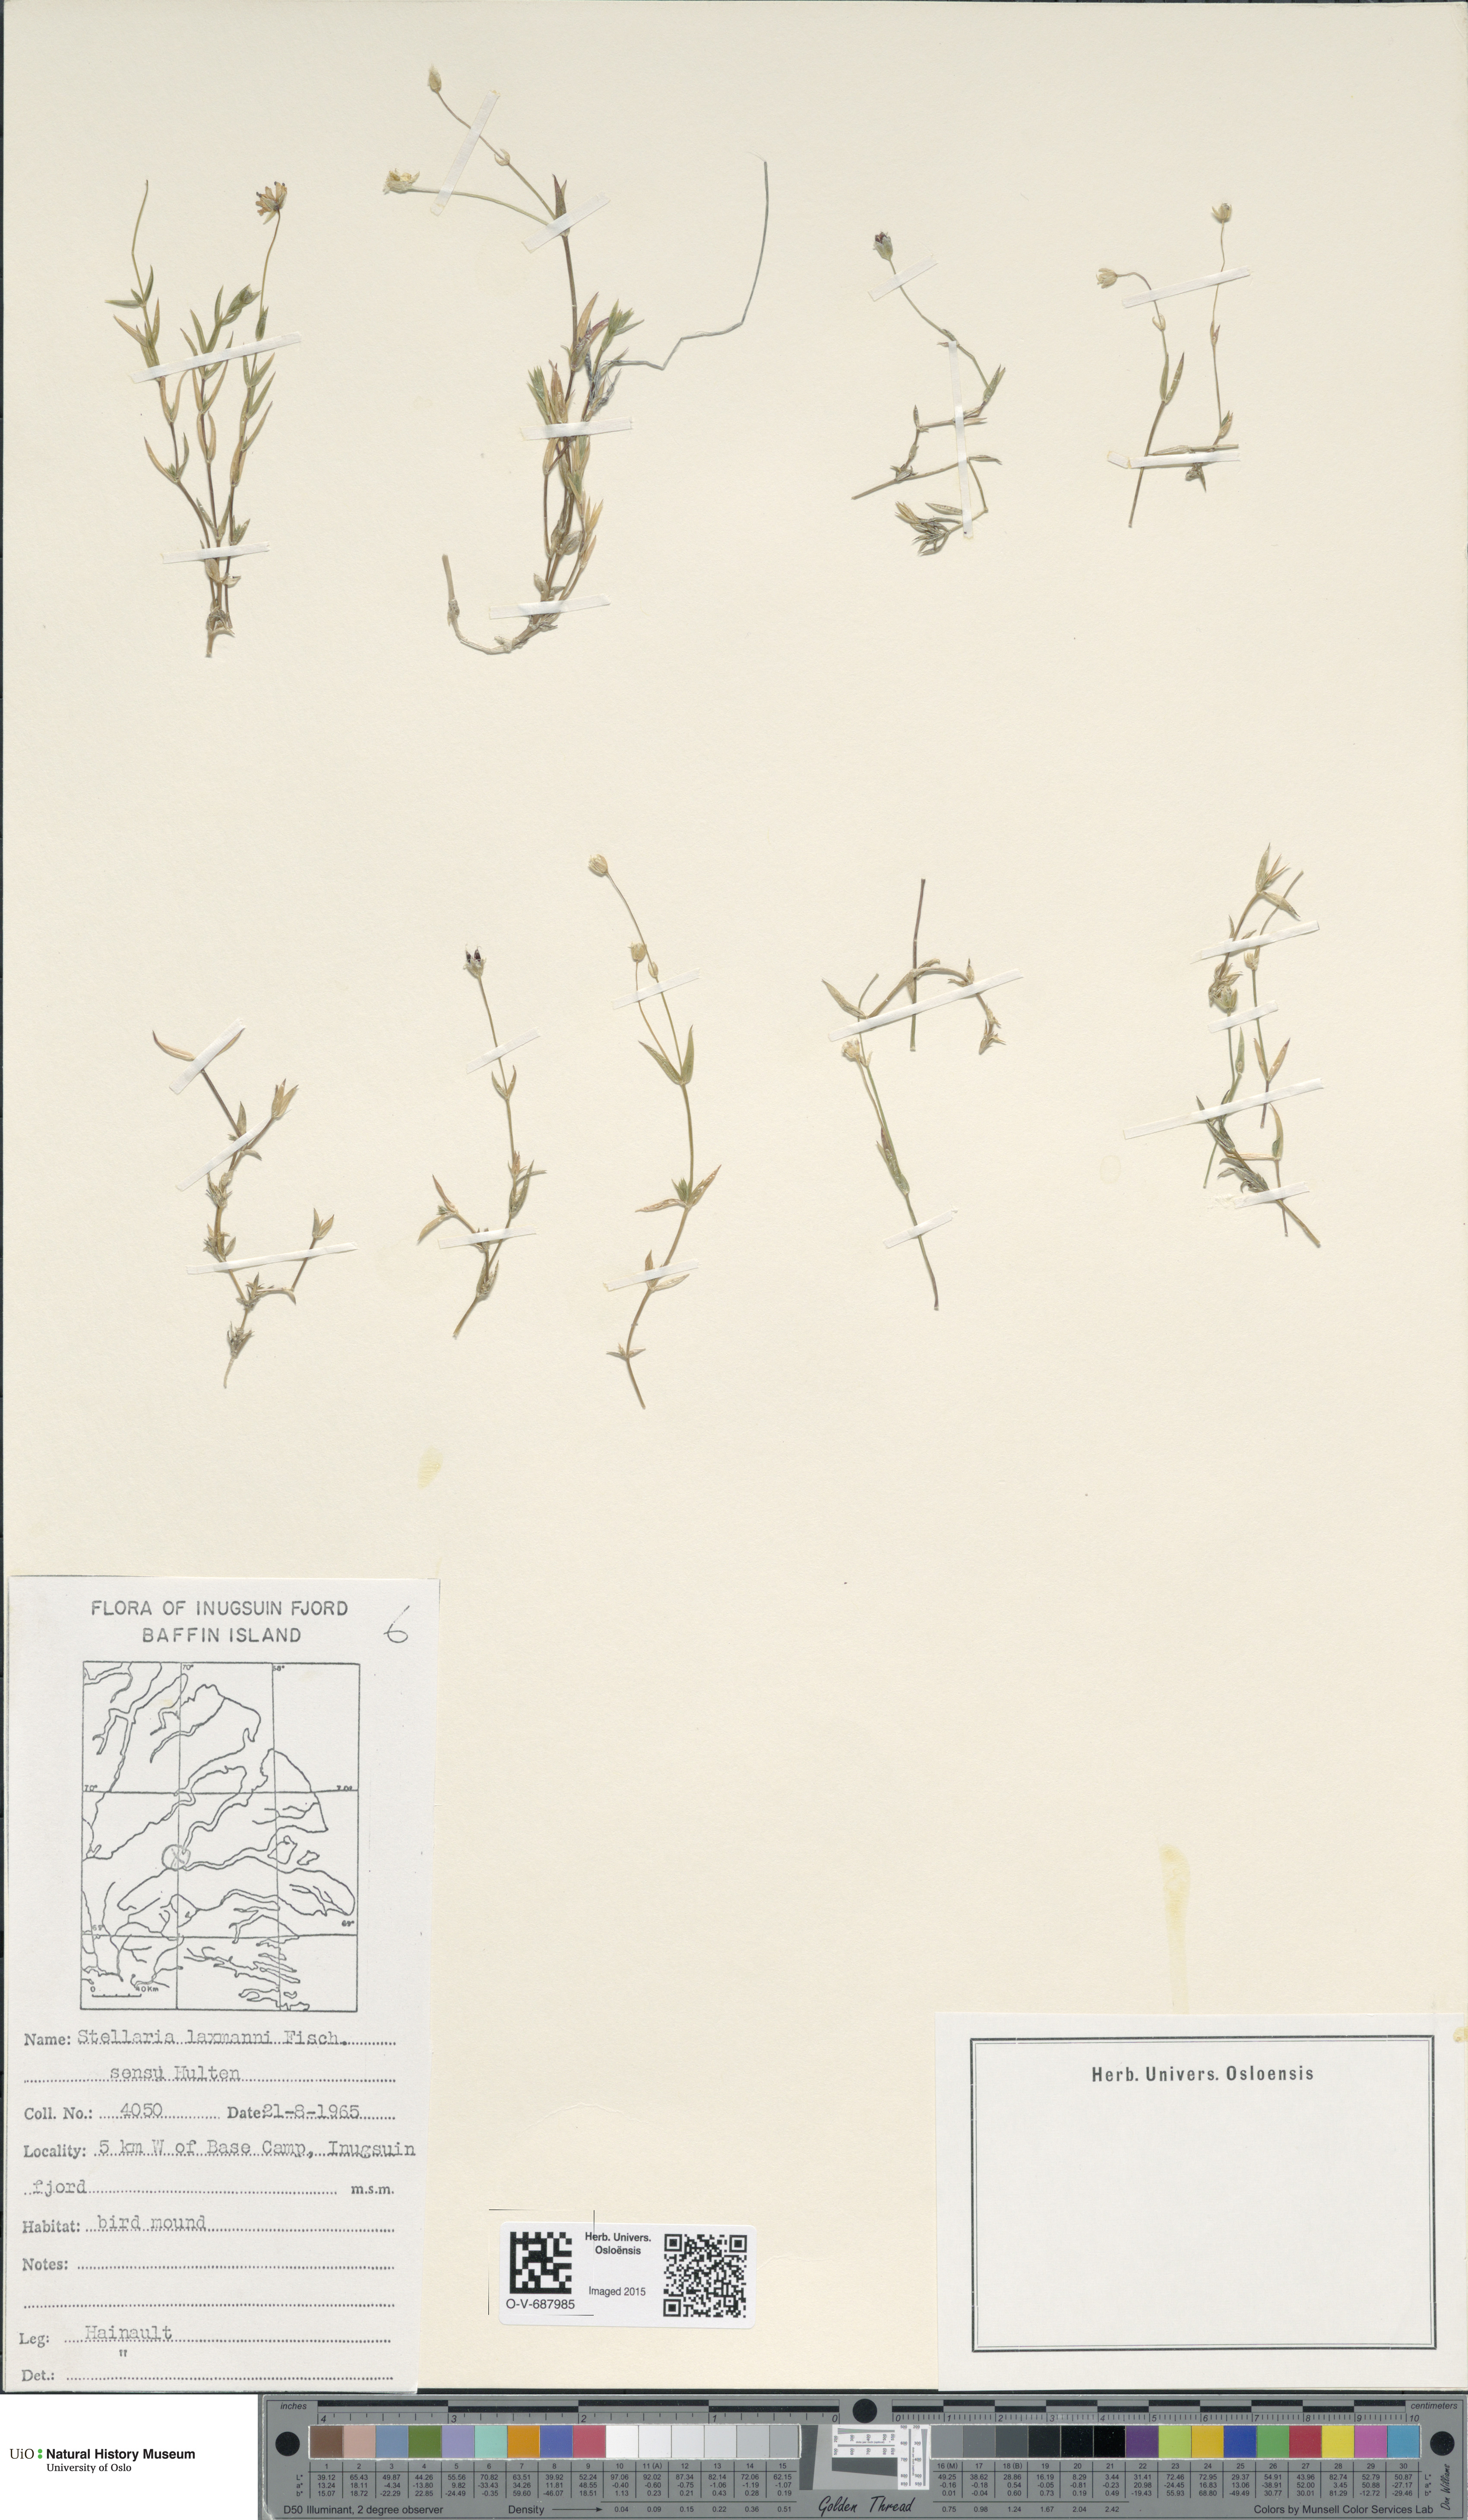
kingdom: Plantae
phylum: Tracheophyta
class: Magnoliopsida
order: Caryophyllales
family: Caryophyllaceae
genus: Stellaria
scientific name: Stellaria laxmannii
